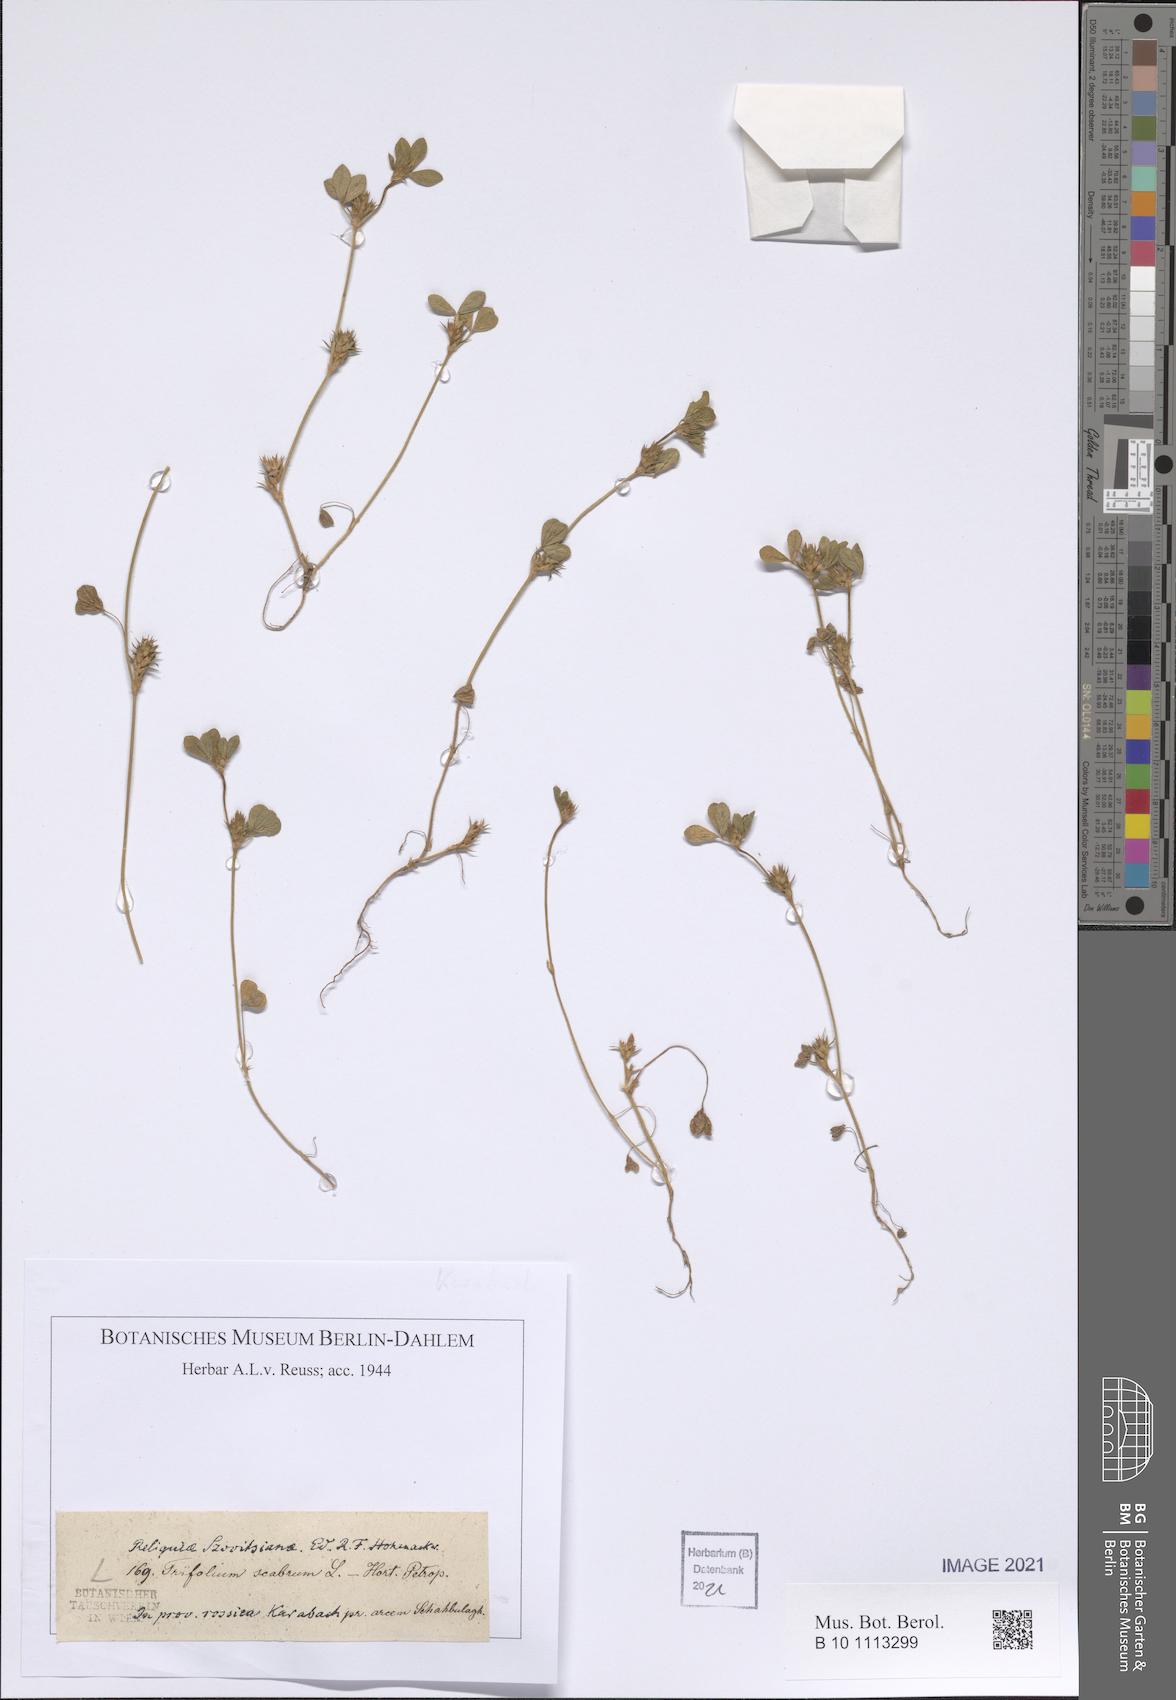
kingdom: Plantae
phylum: Tracheophyta
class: Magnoliopsida
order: Fabales
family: Fabaceae
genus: Trifolium
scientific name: Trifolium scabrum
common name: Rough clover
